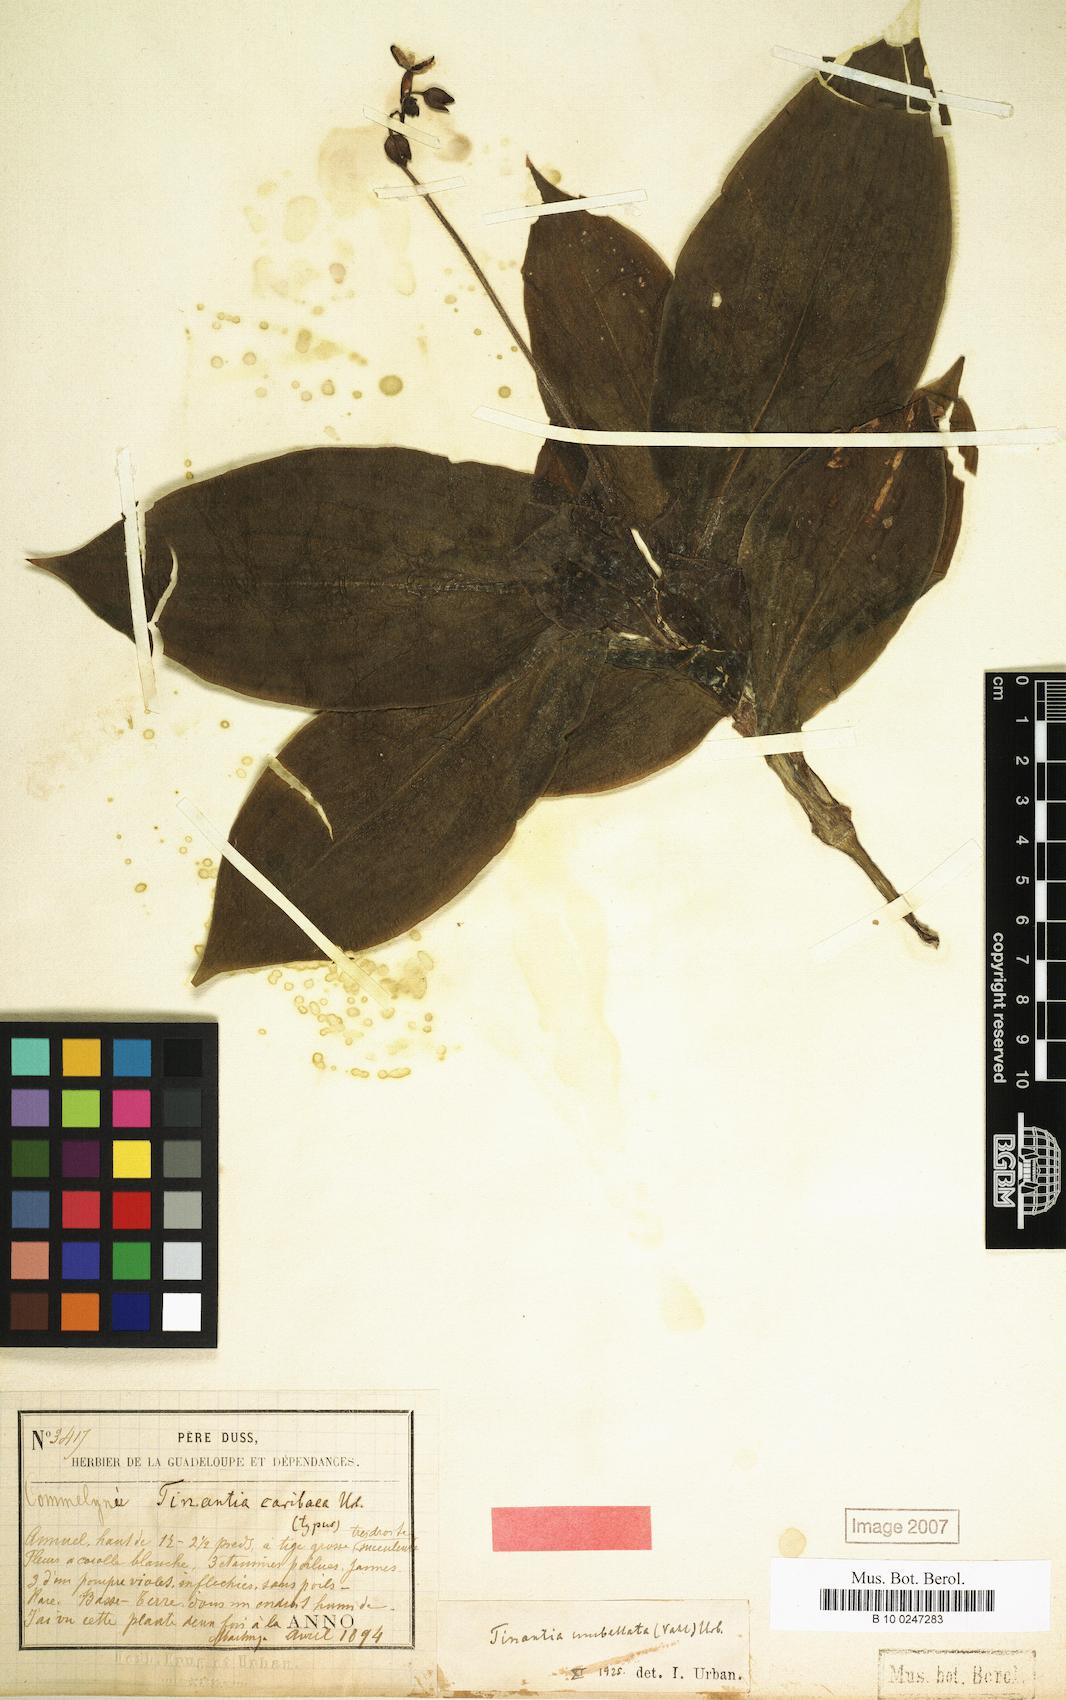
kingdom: Plantae
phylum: Tracheophyta
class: Liliopsida
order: Commelinales
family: Commelinaceae
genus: Tinantia
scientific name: Tinantia umbellata
